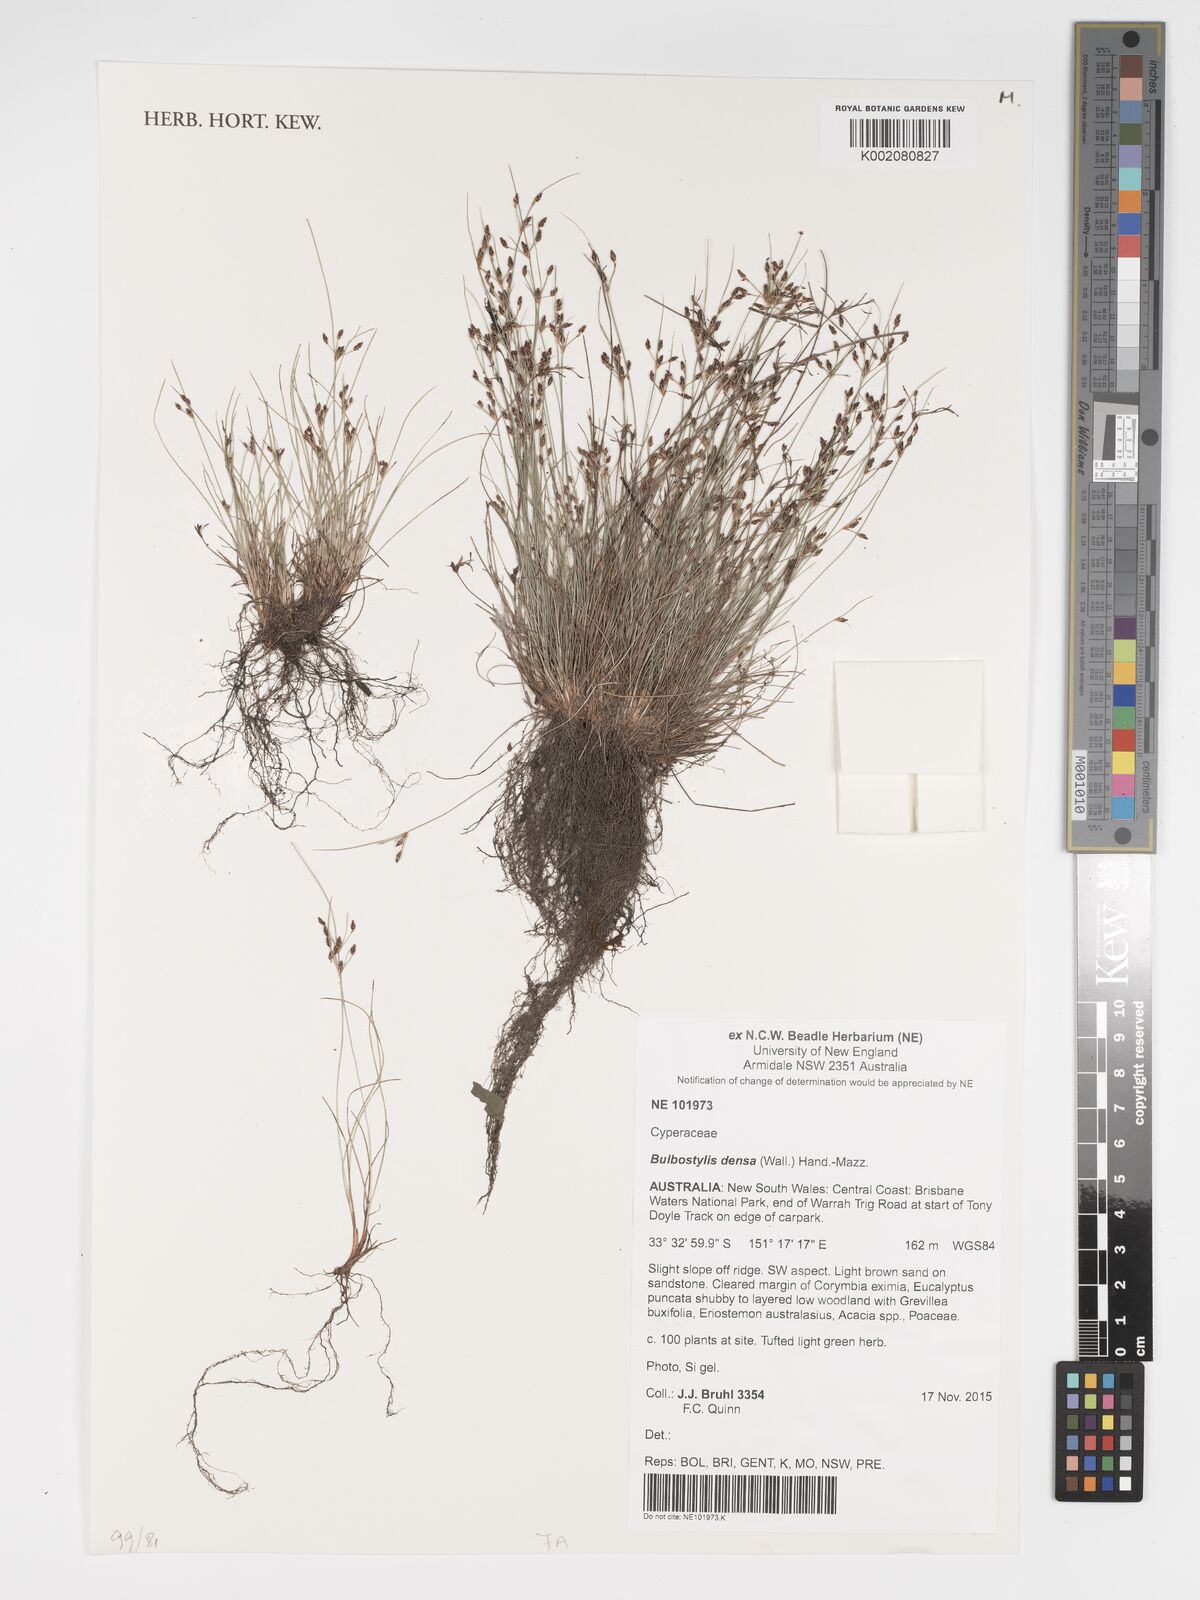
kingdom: Plantae
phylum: Tracheophyta
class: Liliopsida
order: Poales
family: Cyperaceae
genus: Bulbostylis
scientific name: Bulbostylis densa
